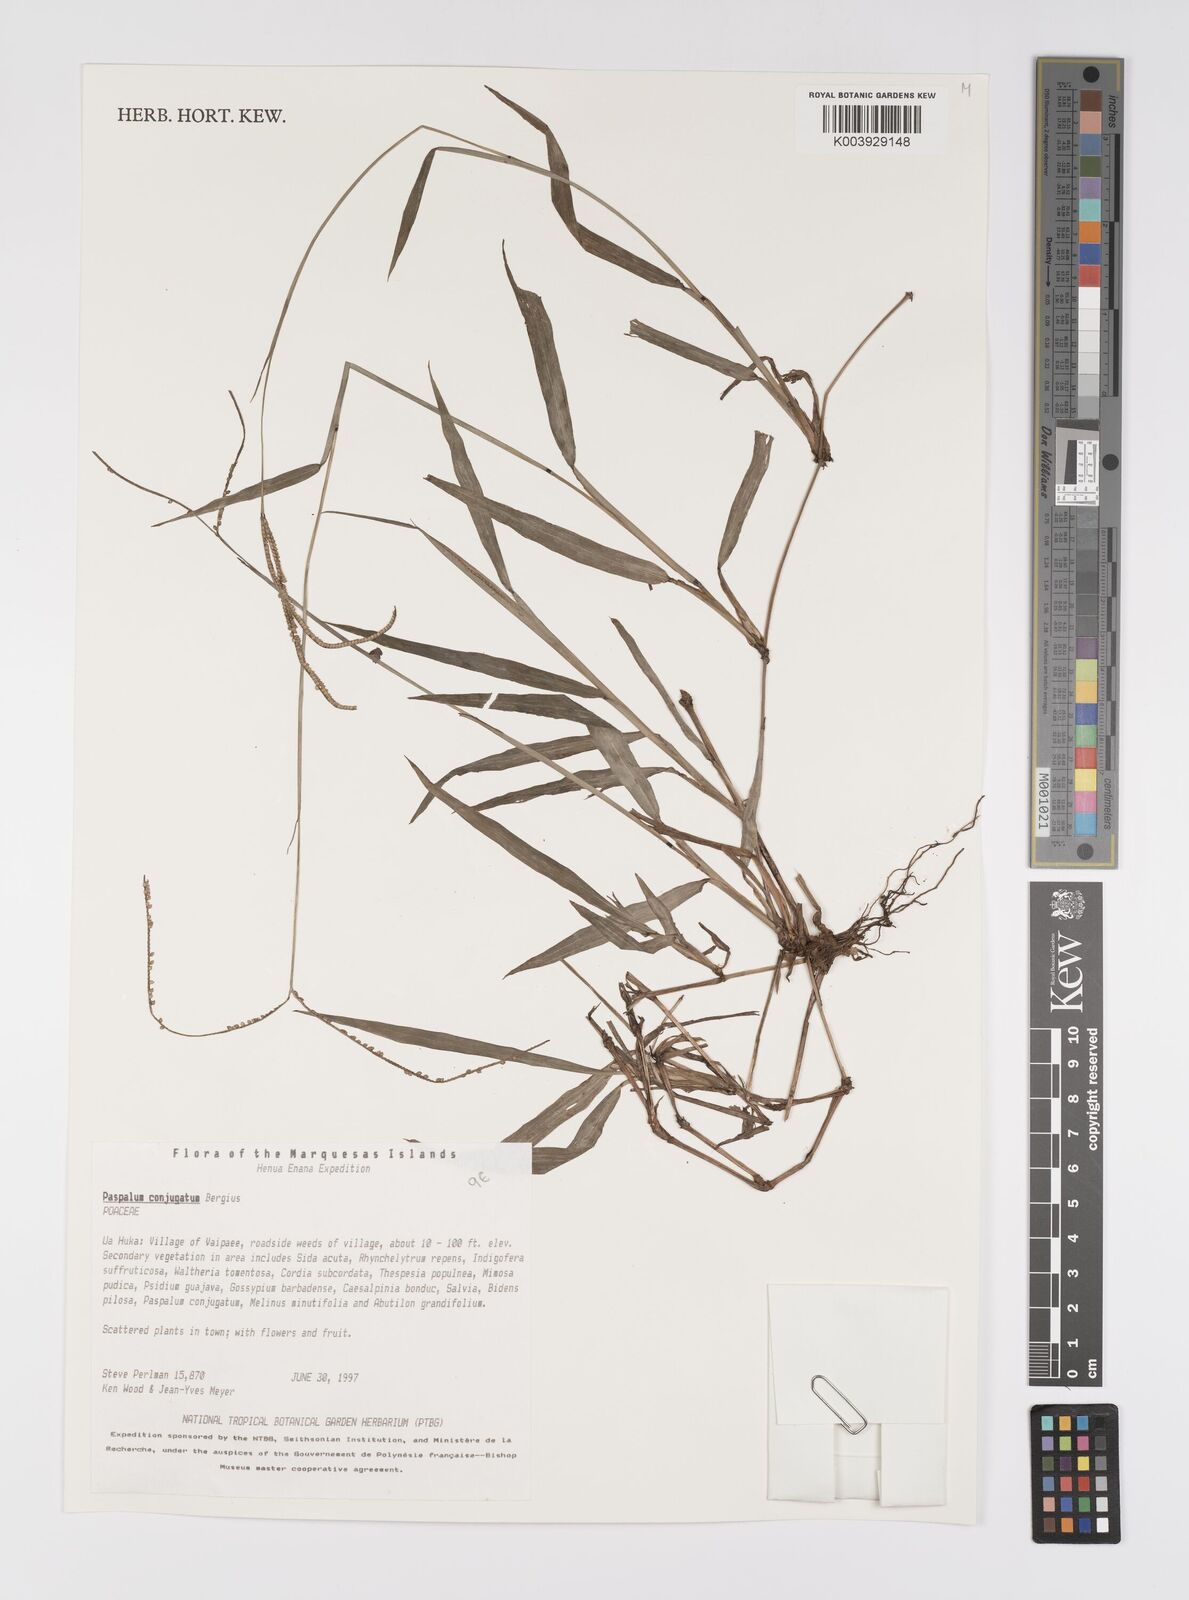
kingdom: Plantae
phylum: Tracheophyta
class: Liliopsida
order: Poales
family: Poaceae
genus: Paspalum
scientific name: Paspalum conjugatum
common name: Hilograss
